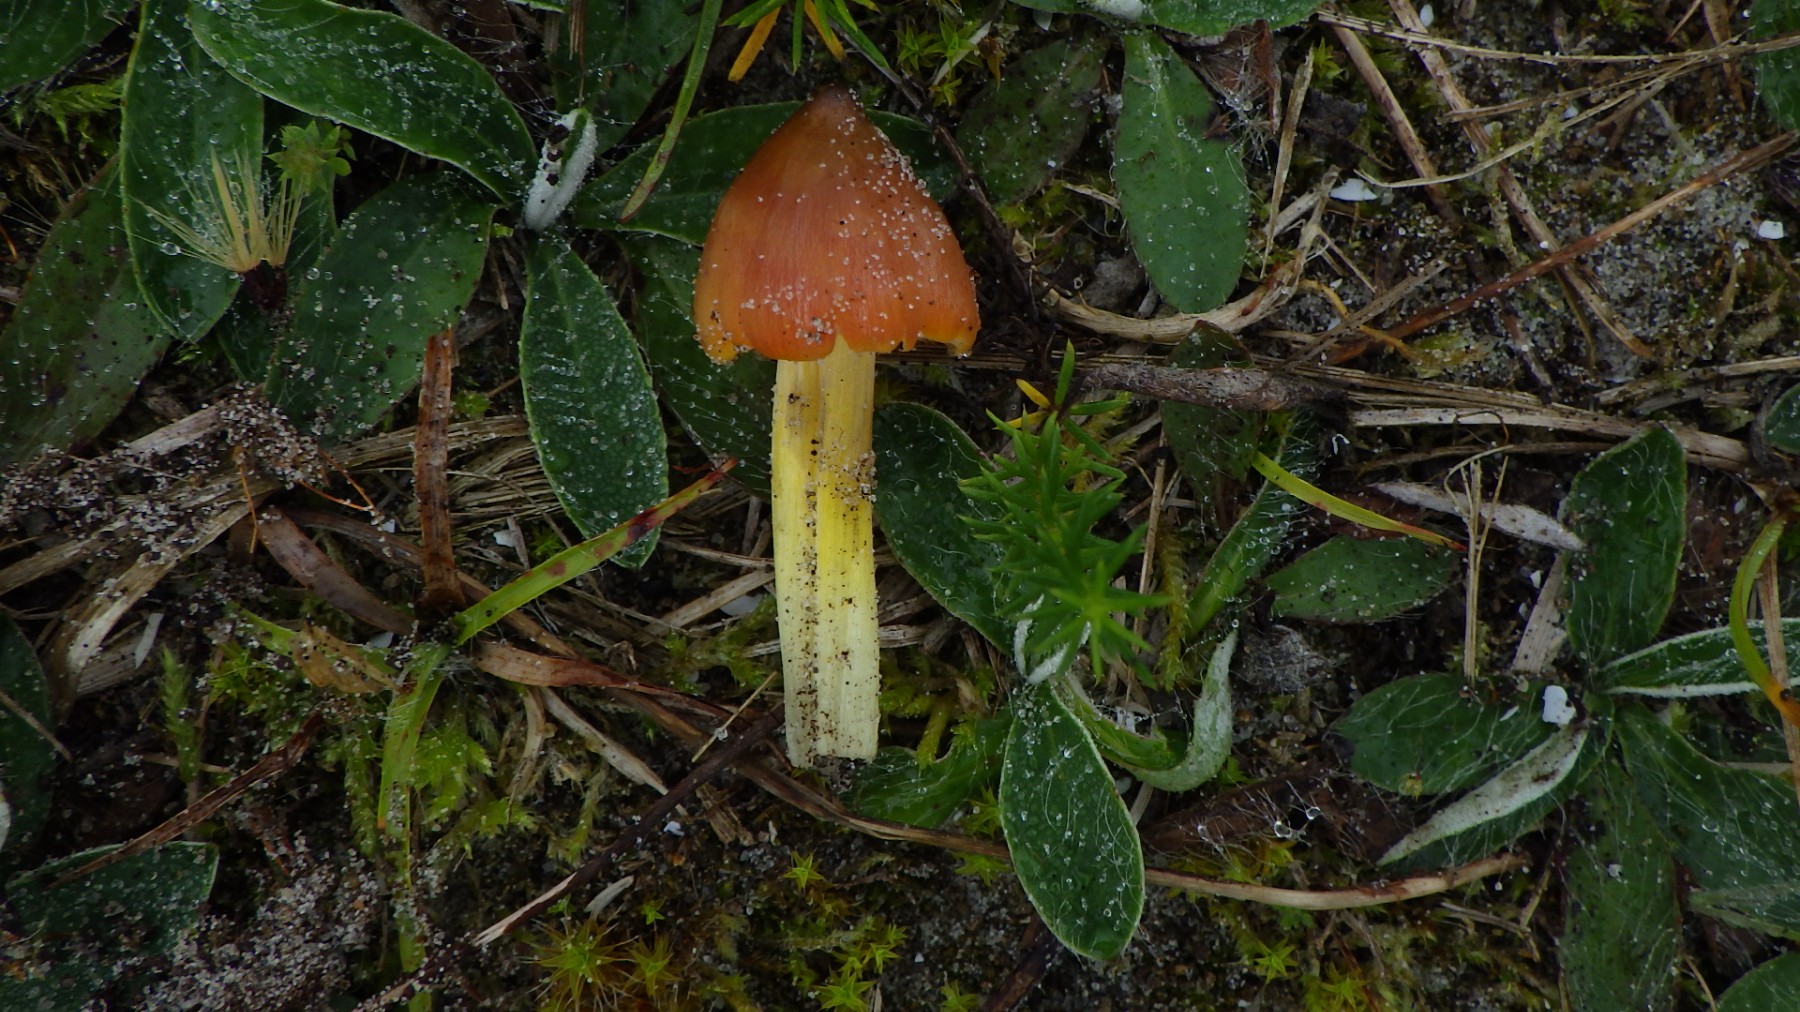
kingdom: Fungi
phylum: Basidiomycota
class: Agaricomycetes
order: Agaricales
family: Hygrophoraceae
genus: Hygrocybe
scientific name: Hygrocybe conica
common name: kegle-vokshat
